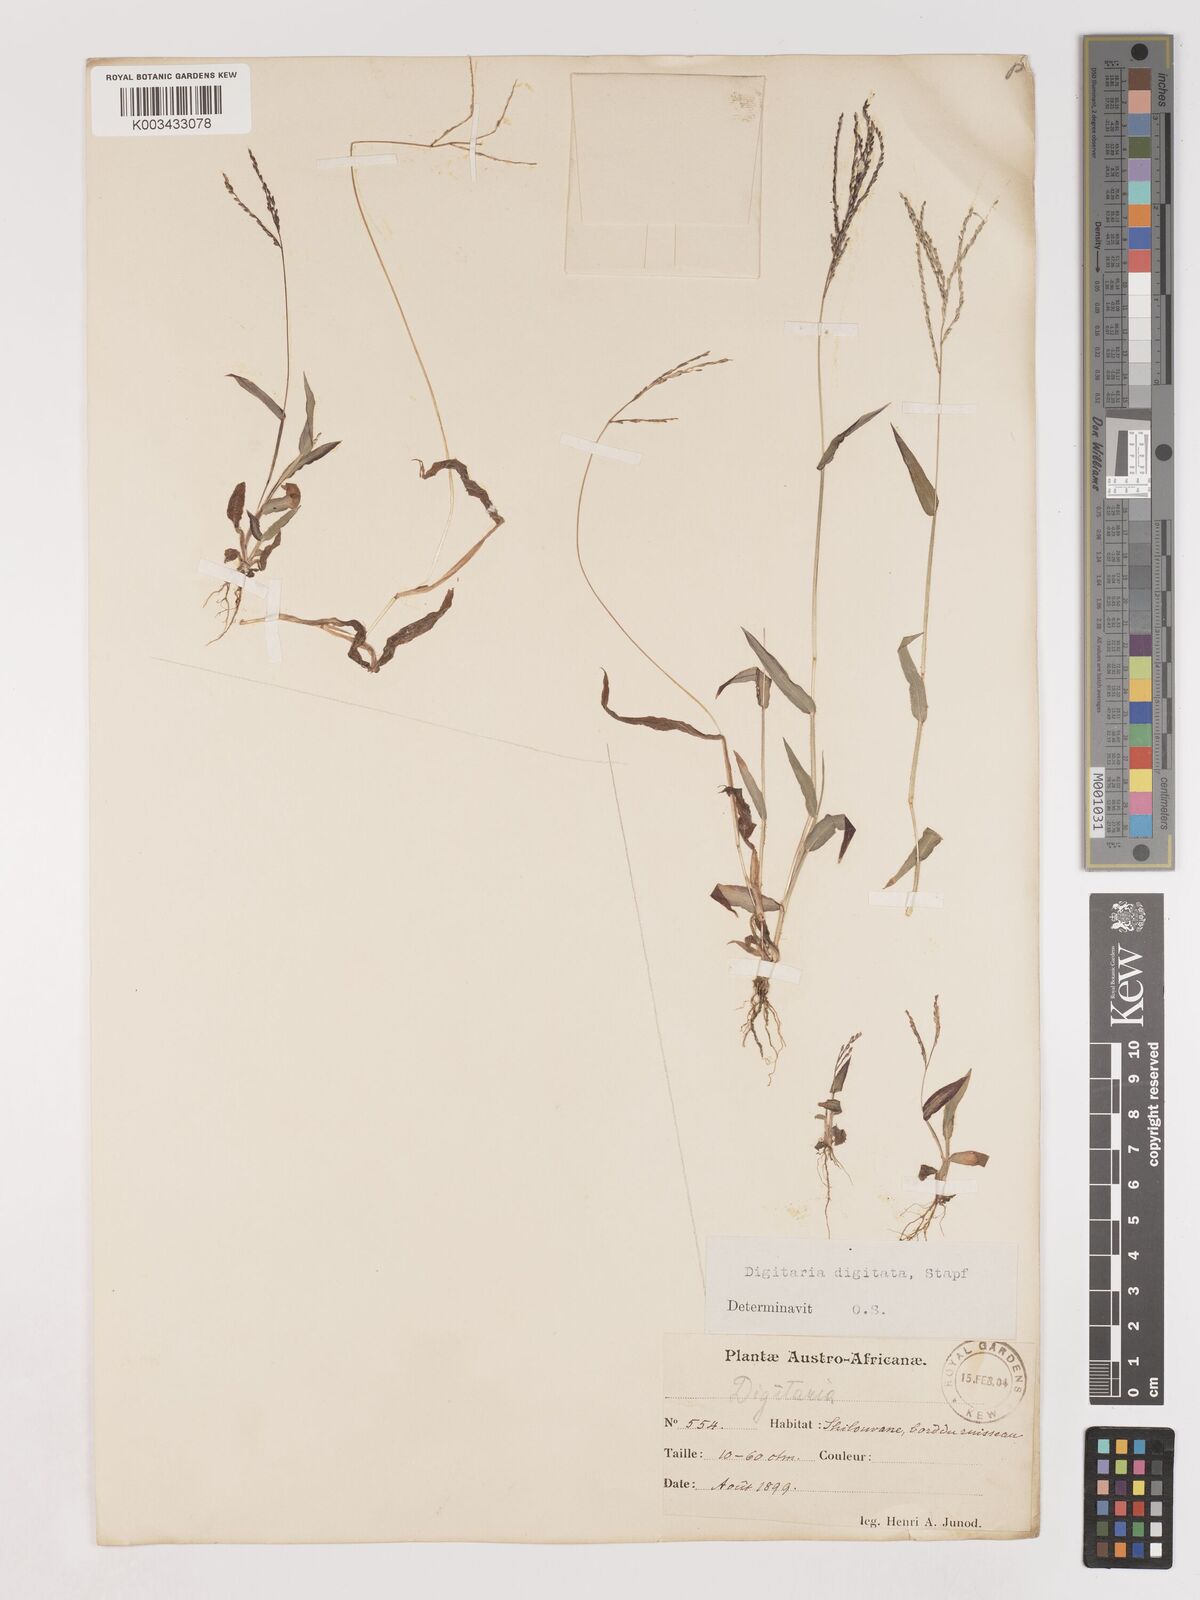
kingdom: Plantae
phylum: Tracheophyta
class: Liliopsida
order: Poales
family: Poaceae
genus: Digitaria
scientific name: Digitaria velutina
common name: Long-plume finger grass
